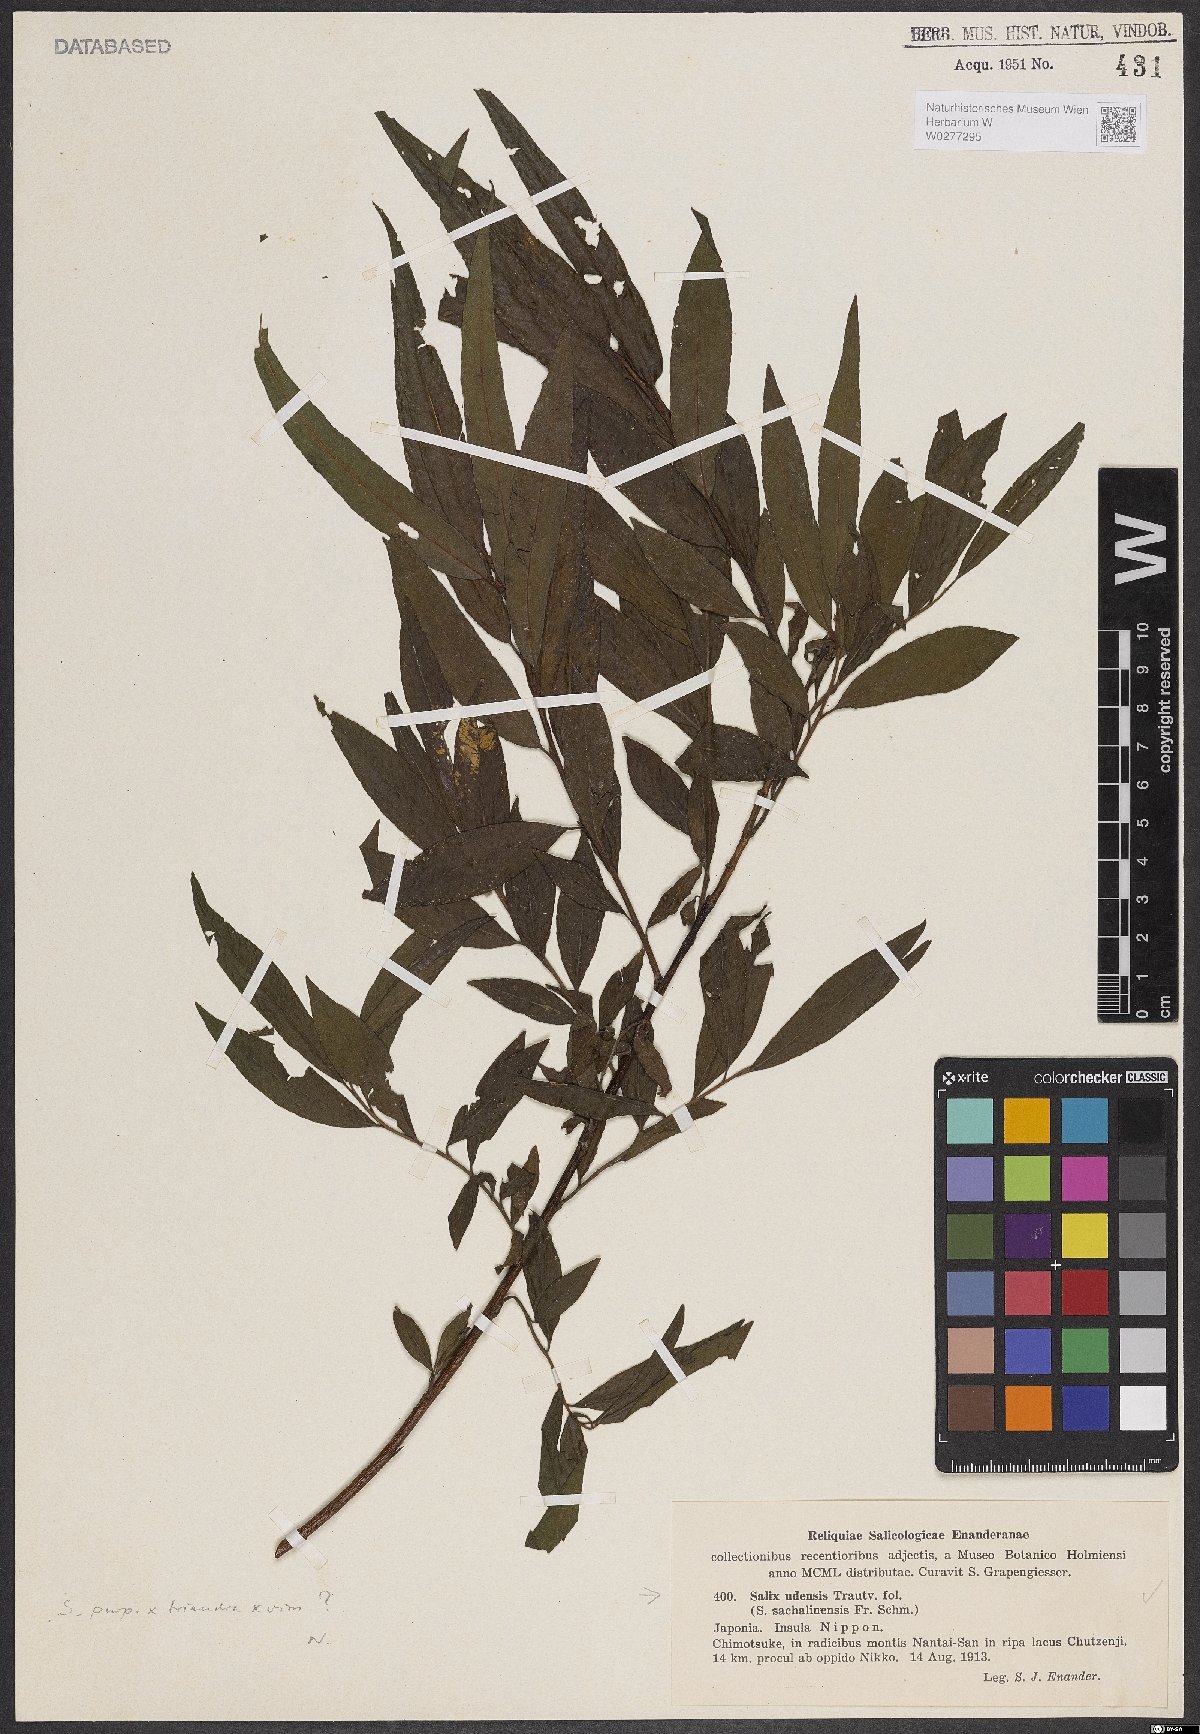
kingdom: Plantae
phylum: Tracheophyta
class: Magnoliopsida
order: Malpighiales
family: Salicaceae
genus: Salix
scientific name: Salix udensis
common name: Sachalin willow
